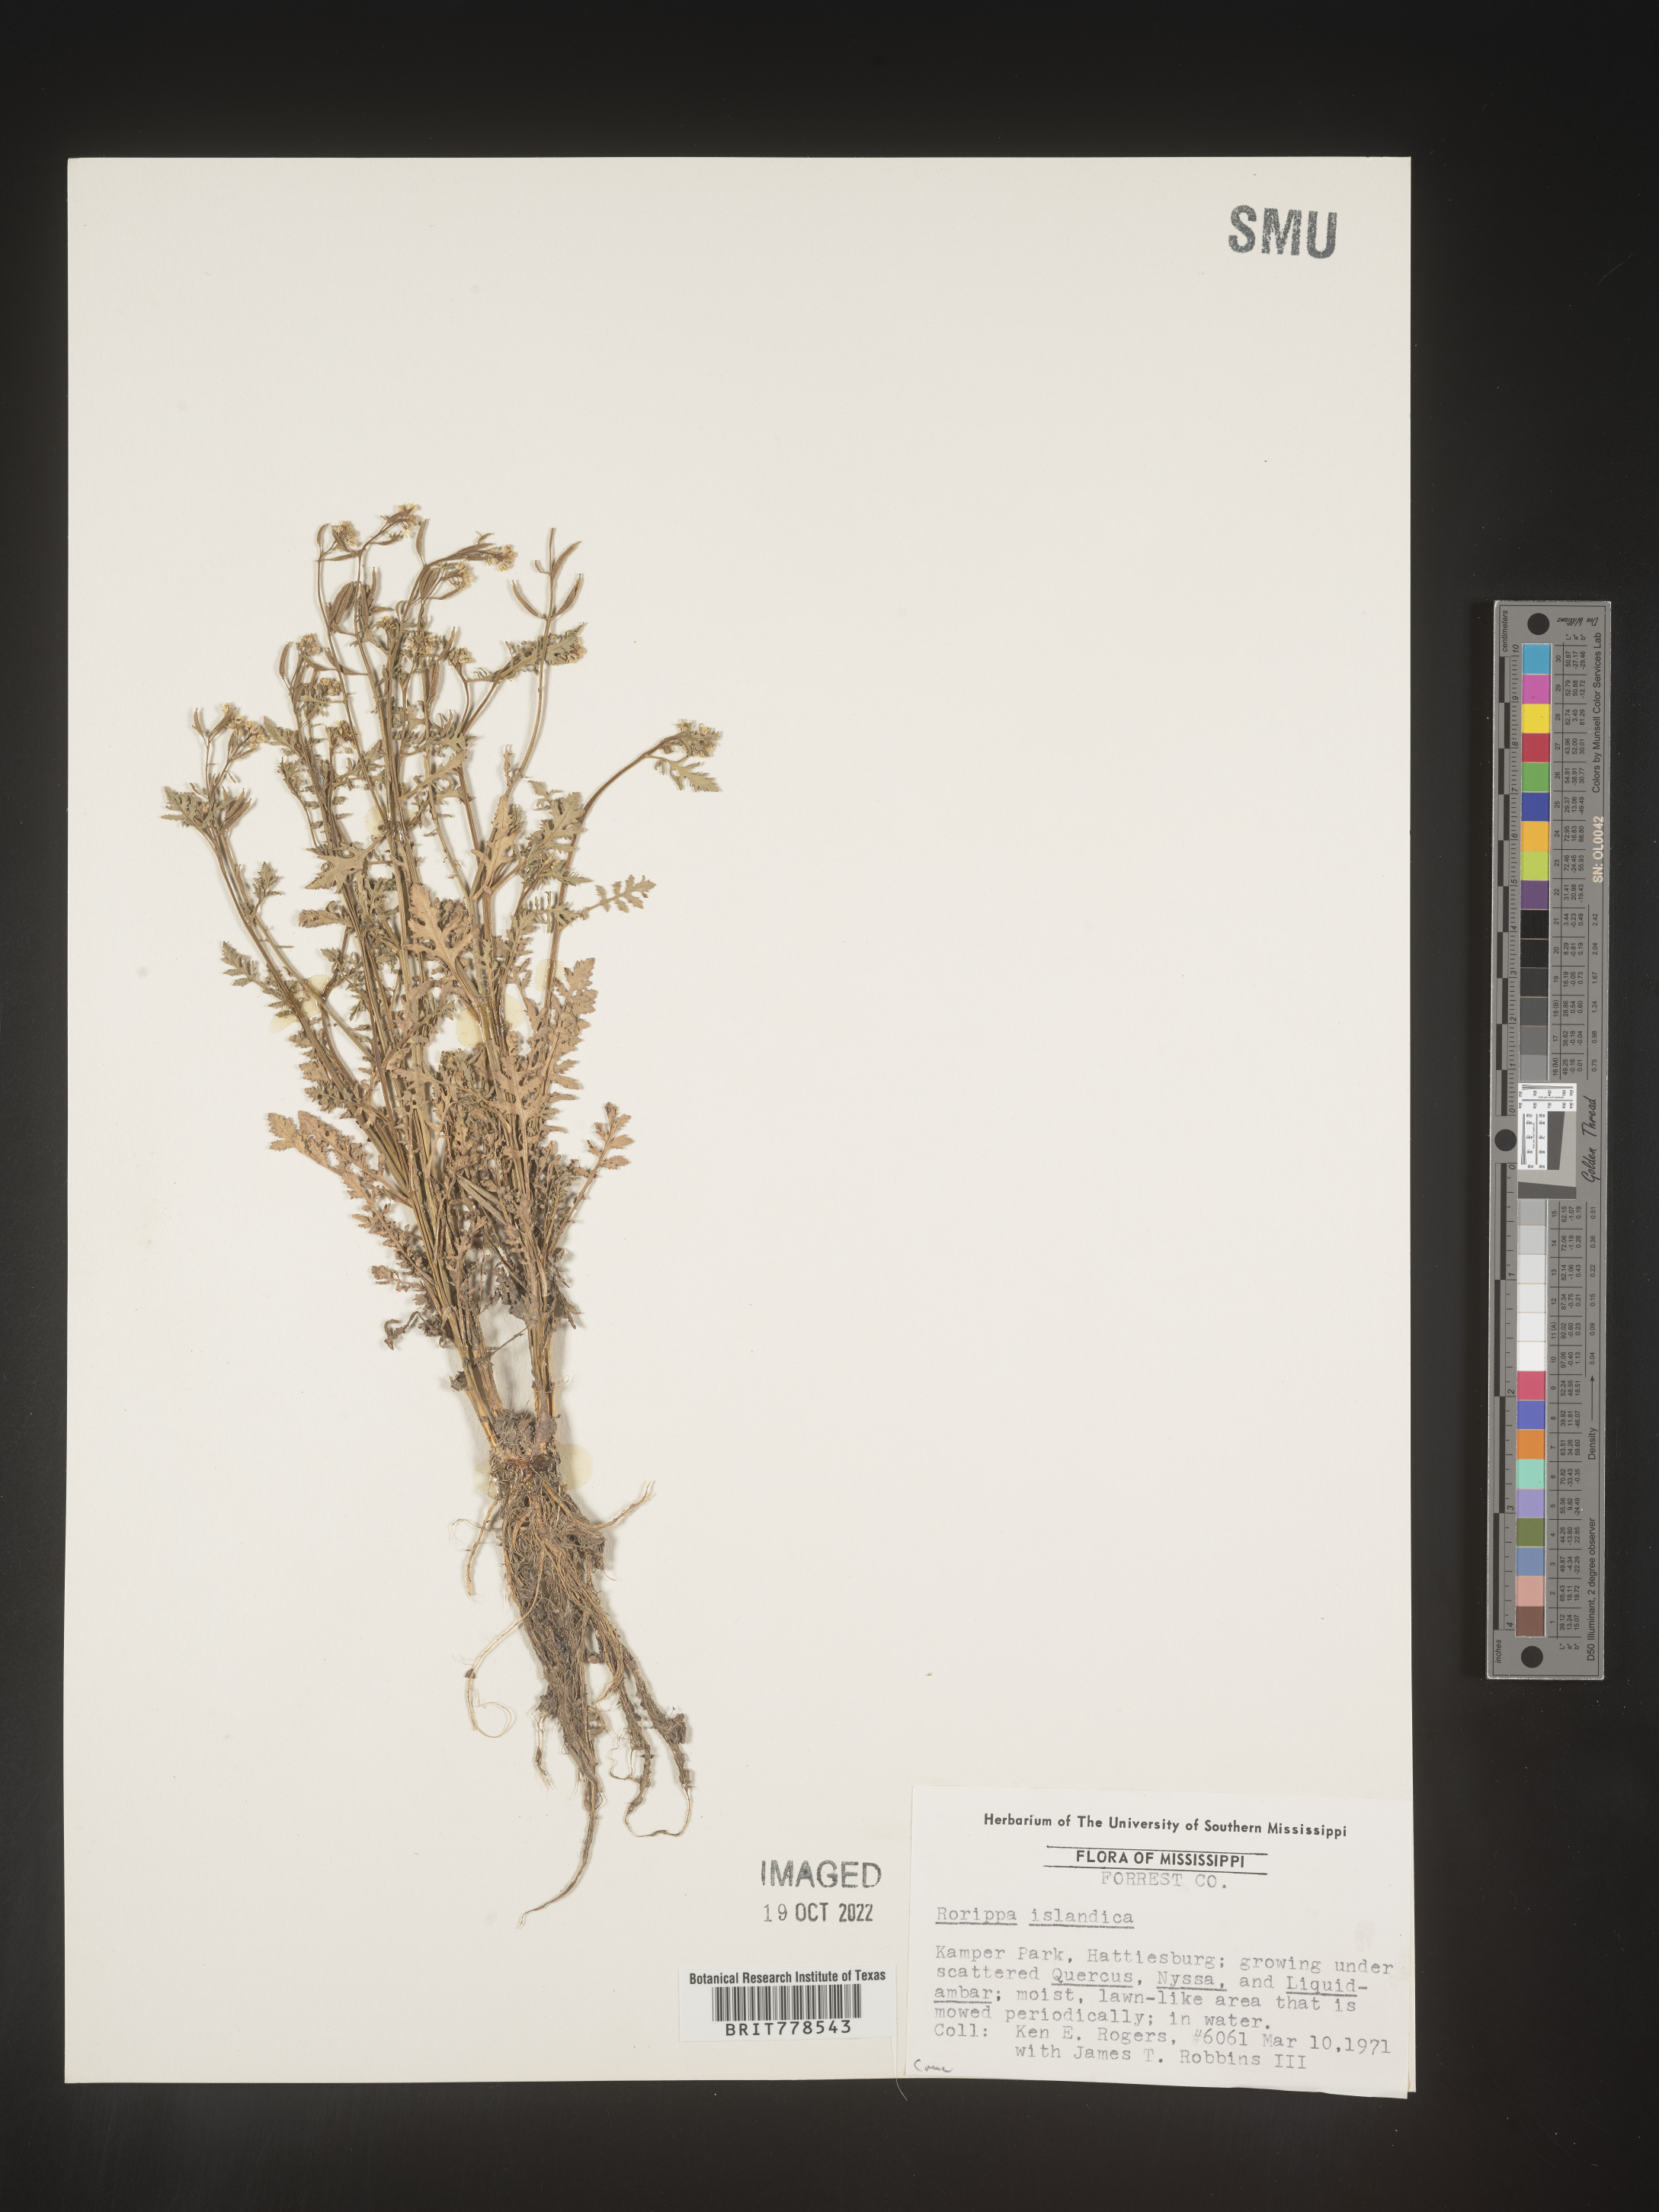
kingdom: Plantae
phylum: Tracheophyta
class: Magnoliopsida
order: Brassicales
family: Brassicaceae
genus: Rorippa
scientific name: Rorippa
